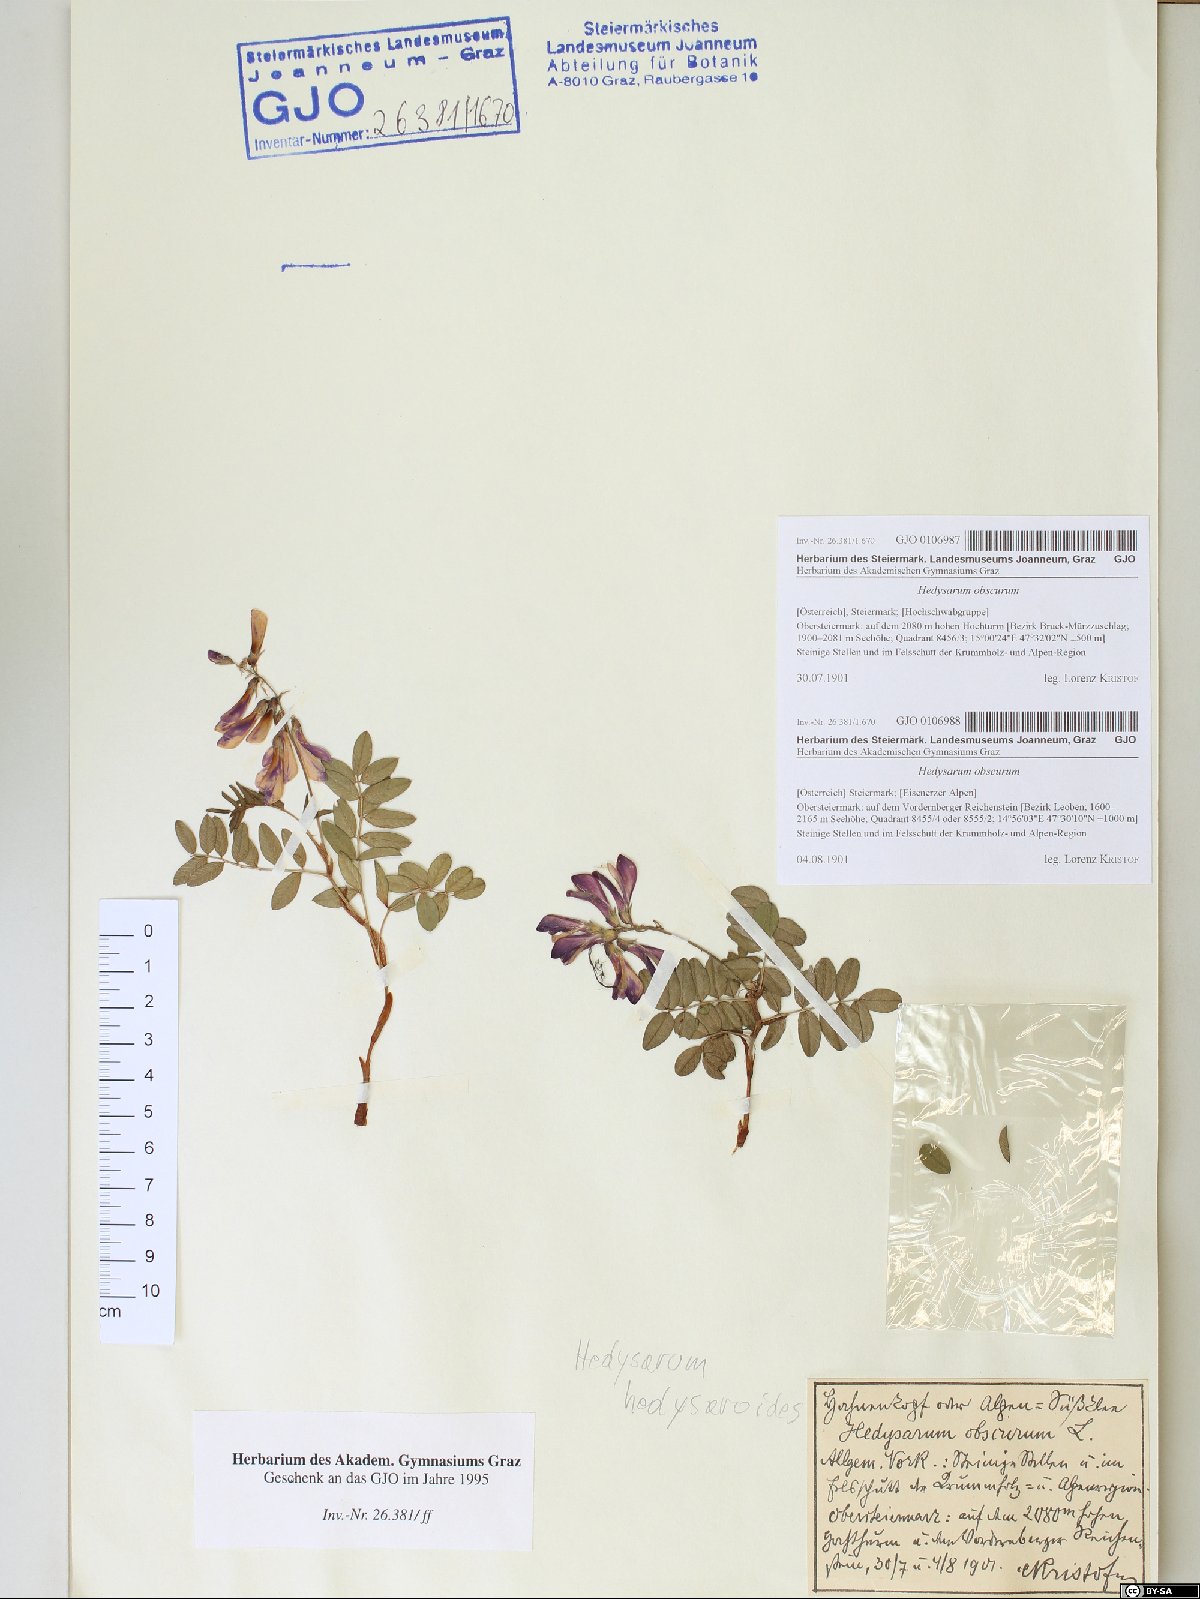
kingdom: Plantae
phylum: Tracheophyta
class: Magnoliopsida
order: Fabales
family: Fabaceae
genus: Hedysarum
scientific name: Hedysarum hedysaroides
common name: Alpine french-honeysuckle
